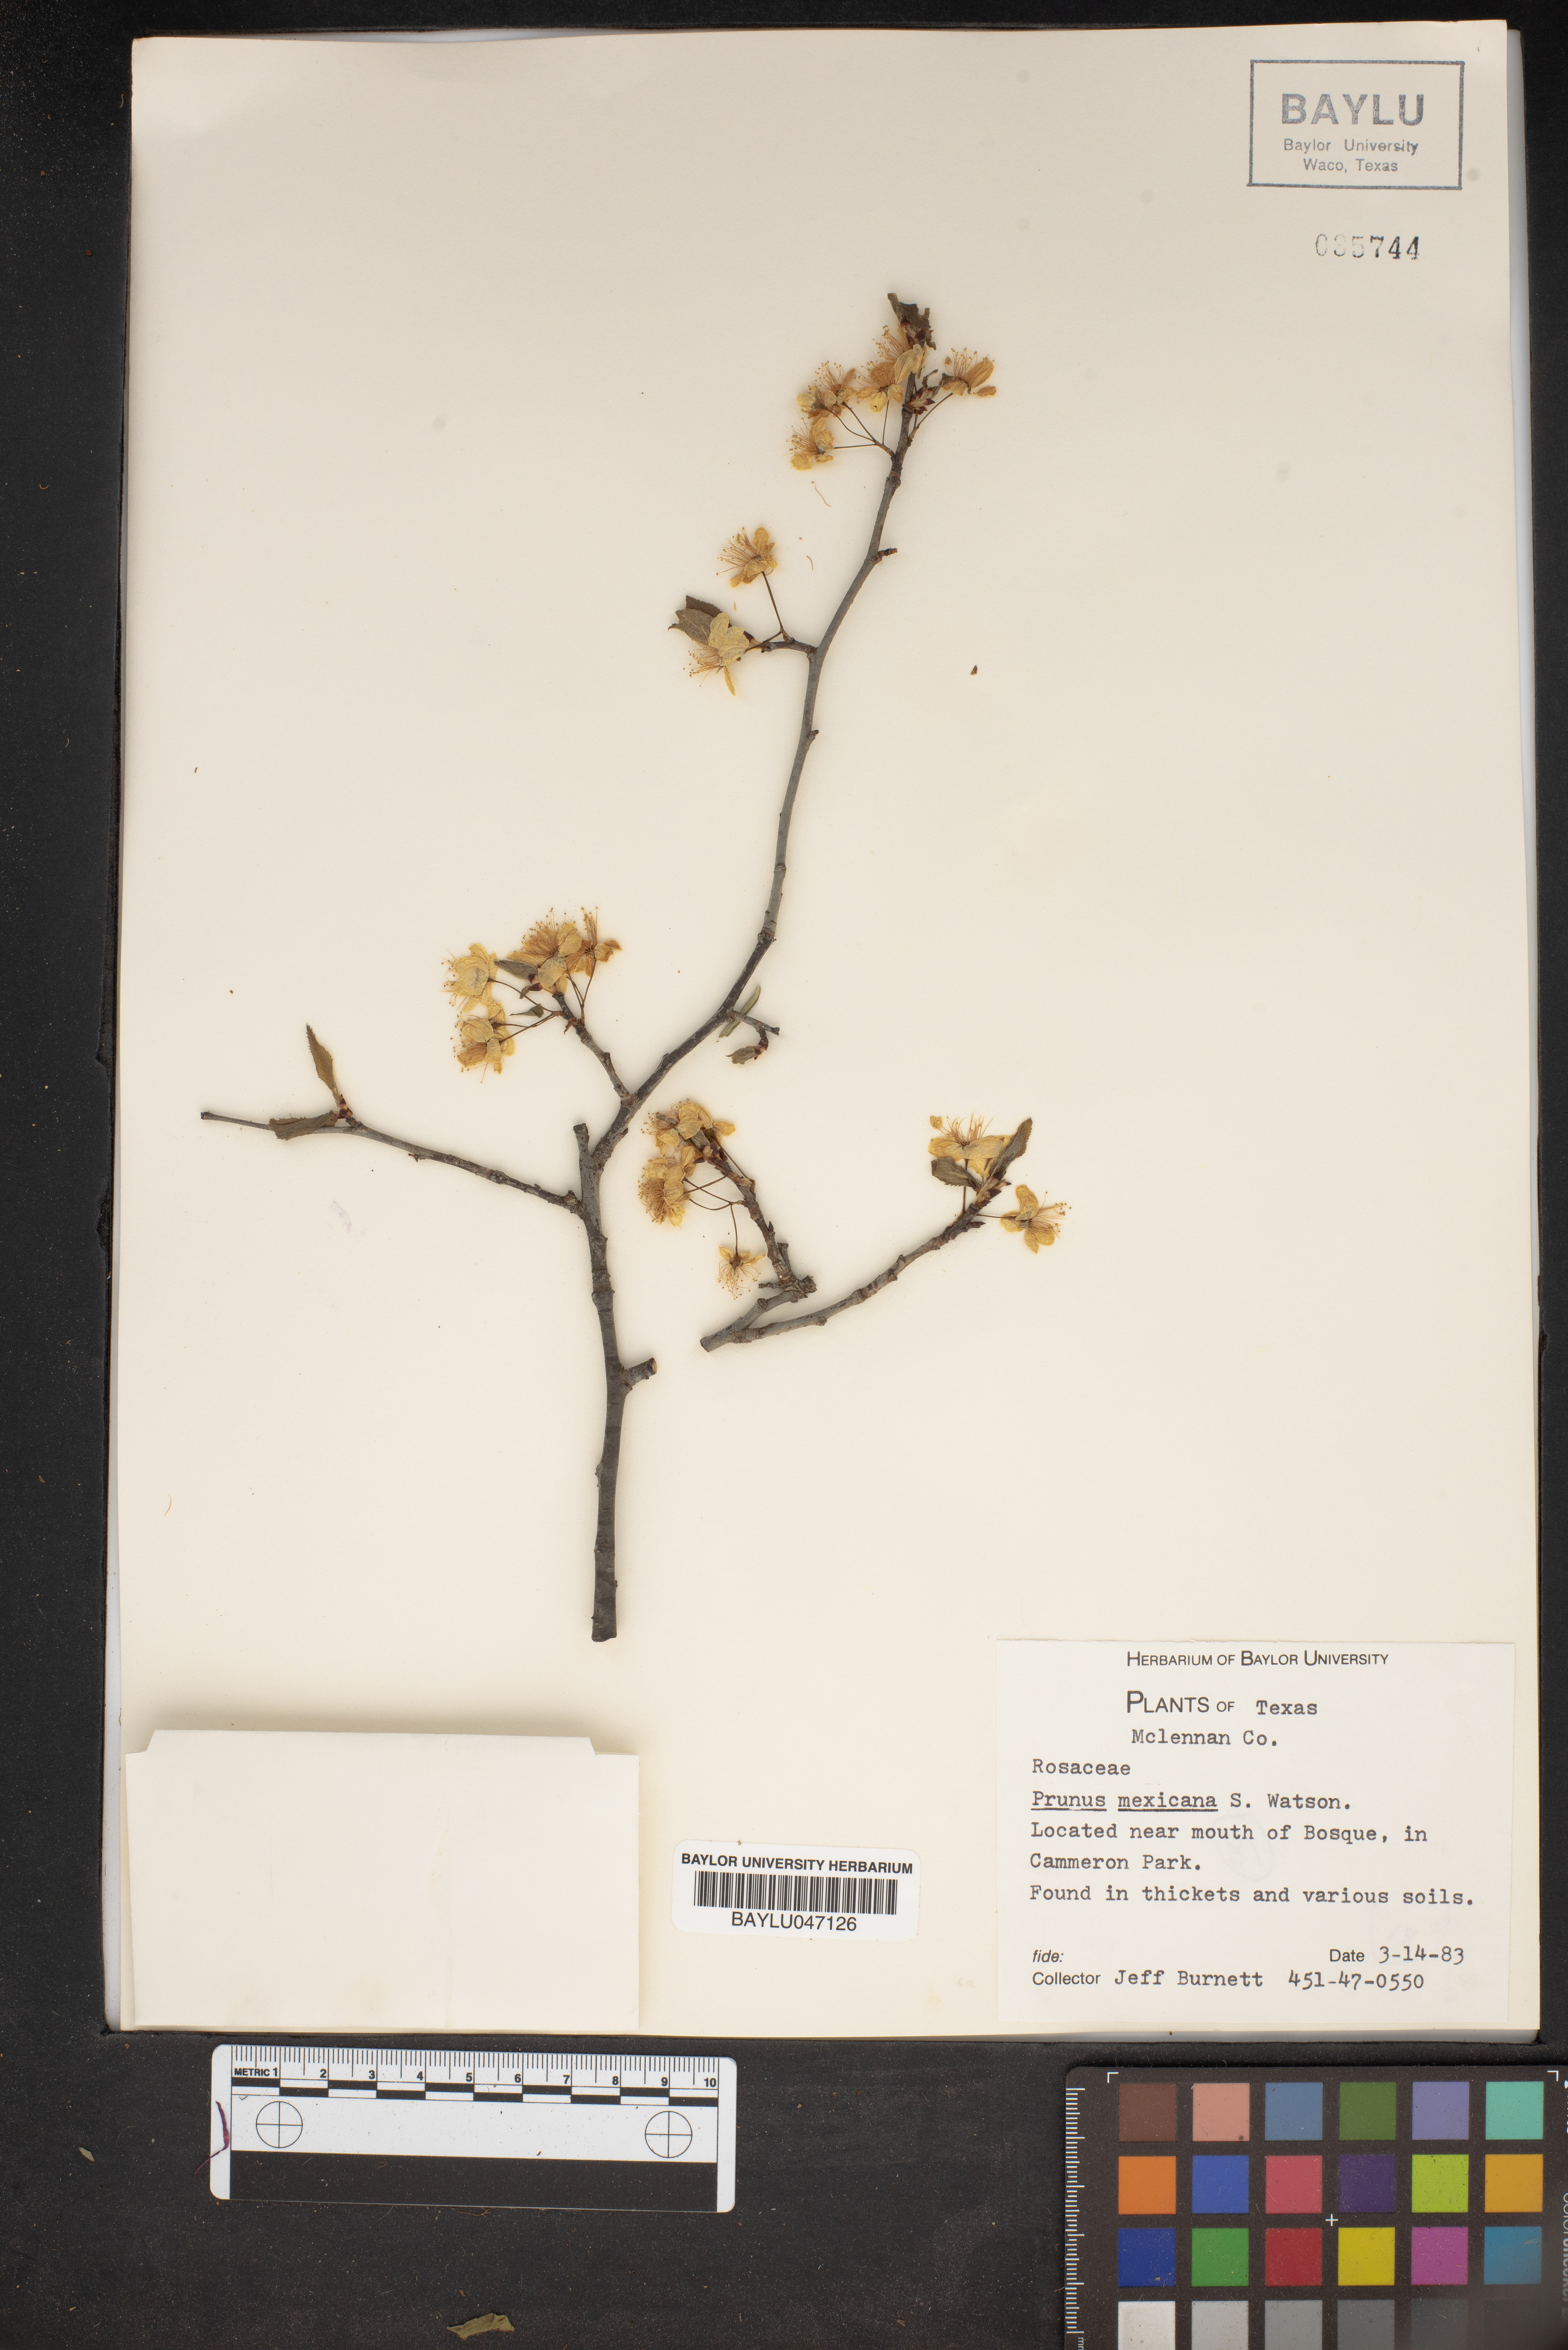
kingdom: Plantae
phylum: Tracheophyta
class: Magnoliopsida
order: Rosales
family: Rosaceae
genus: Prunus
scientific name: Prunus mexicana
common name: Mexican plum
